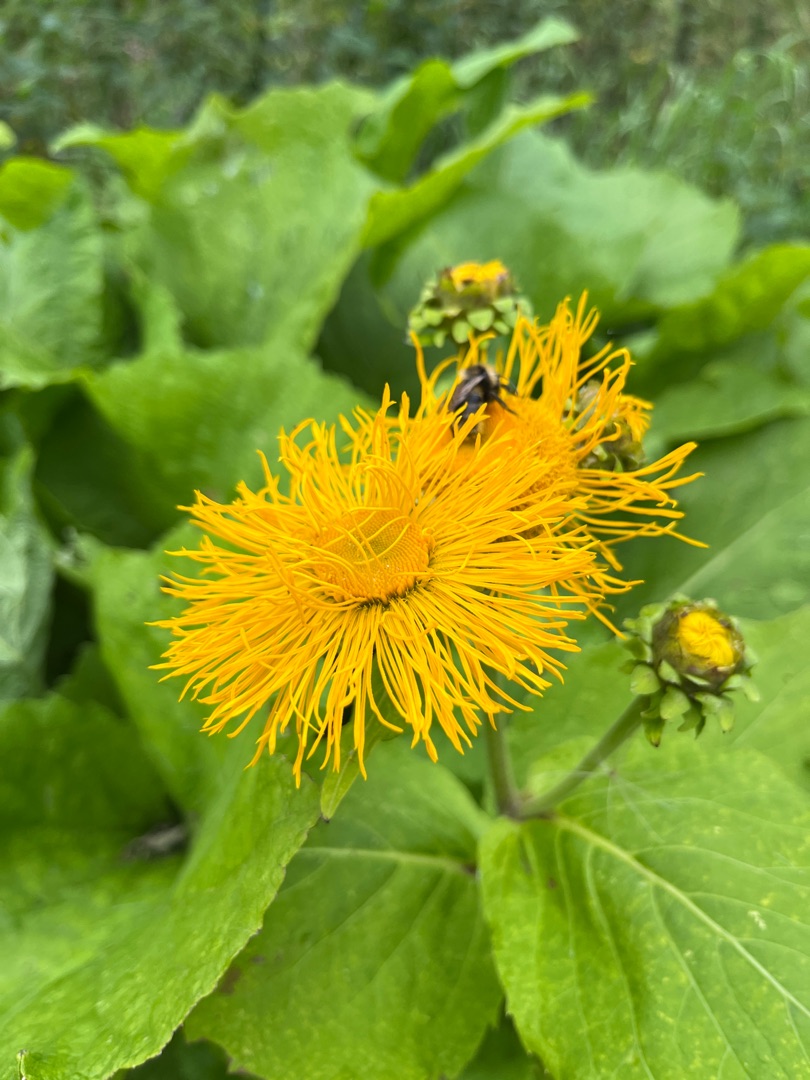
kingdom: Plantae
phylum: Tracheophyta
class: Magnoliopsida
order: Asterales
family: Asteraceae
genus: Telekia
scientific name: Telekia speciosa
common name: Tusindstråle
